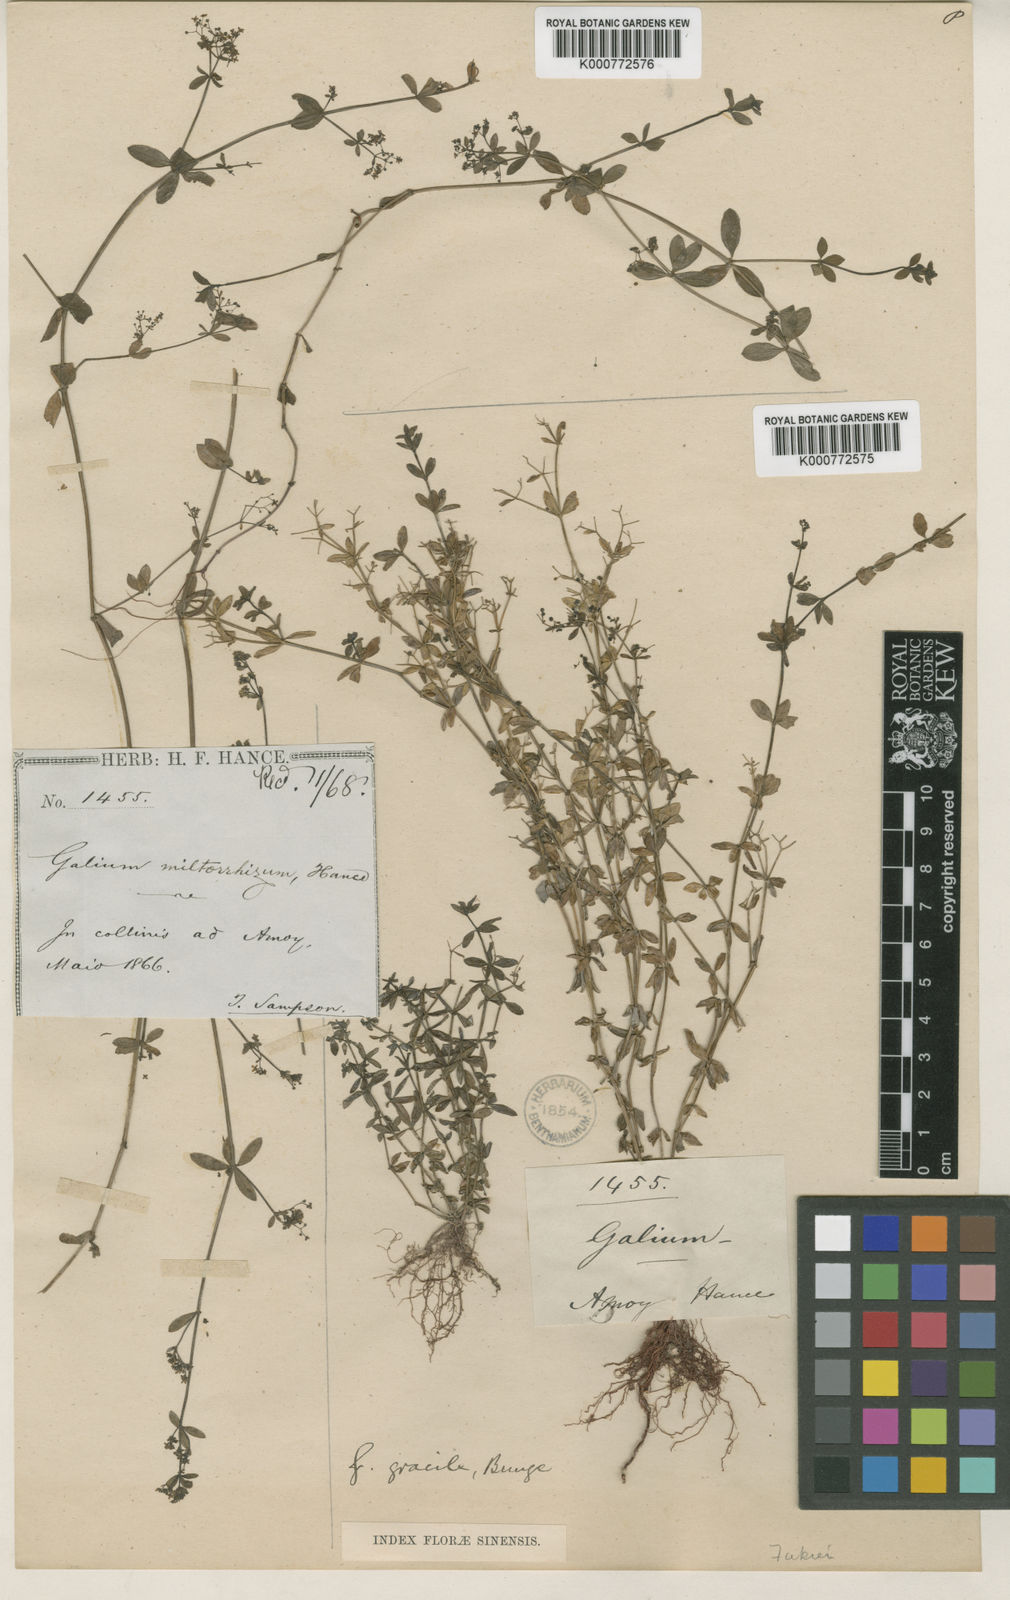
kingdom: Plantae
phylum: Tracheophyta
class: Magnoliopsida
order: Gentianales
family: Rubiaceae
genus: Galium
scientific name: Galium bungei
